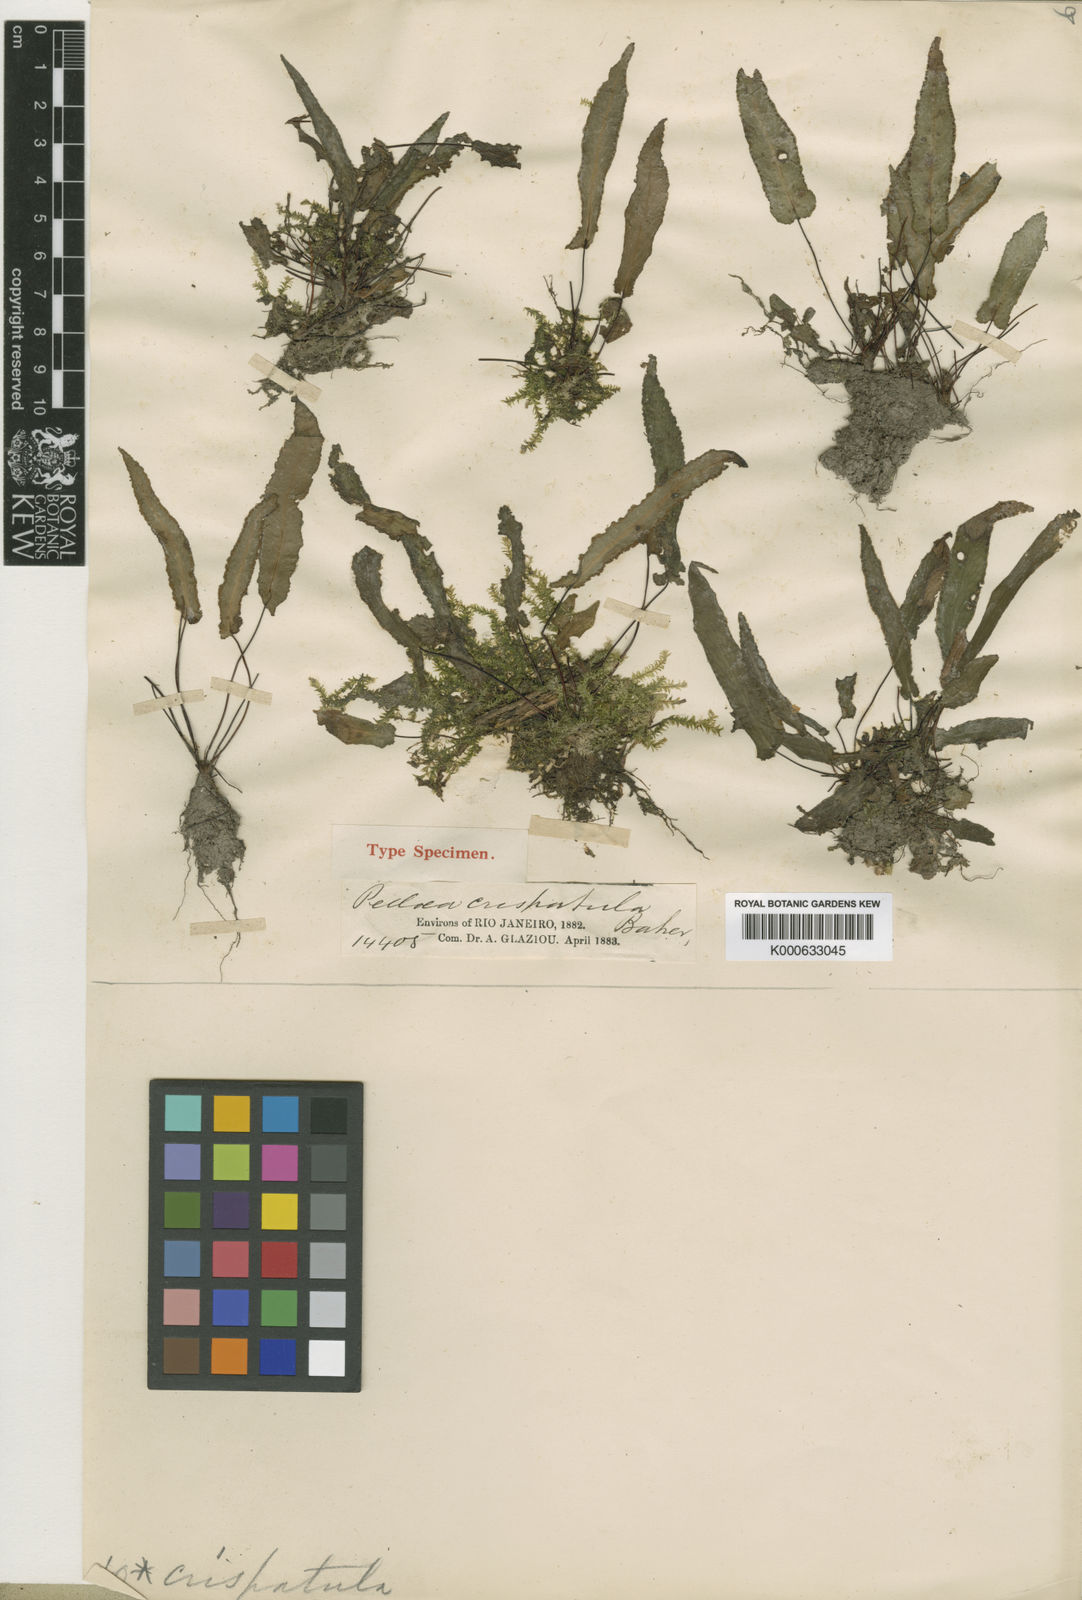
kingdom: Plantae
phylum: Tracheophyta
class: Polypodiopsida
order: Polypodiales
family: Pteridaceae
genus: Doryopteris
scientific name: Doryopteris crispatula
